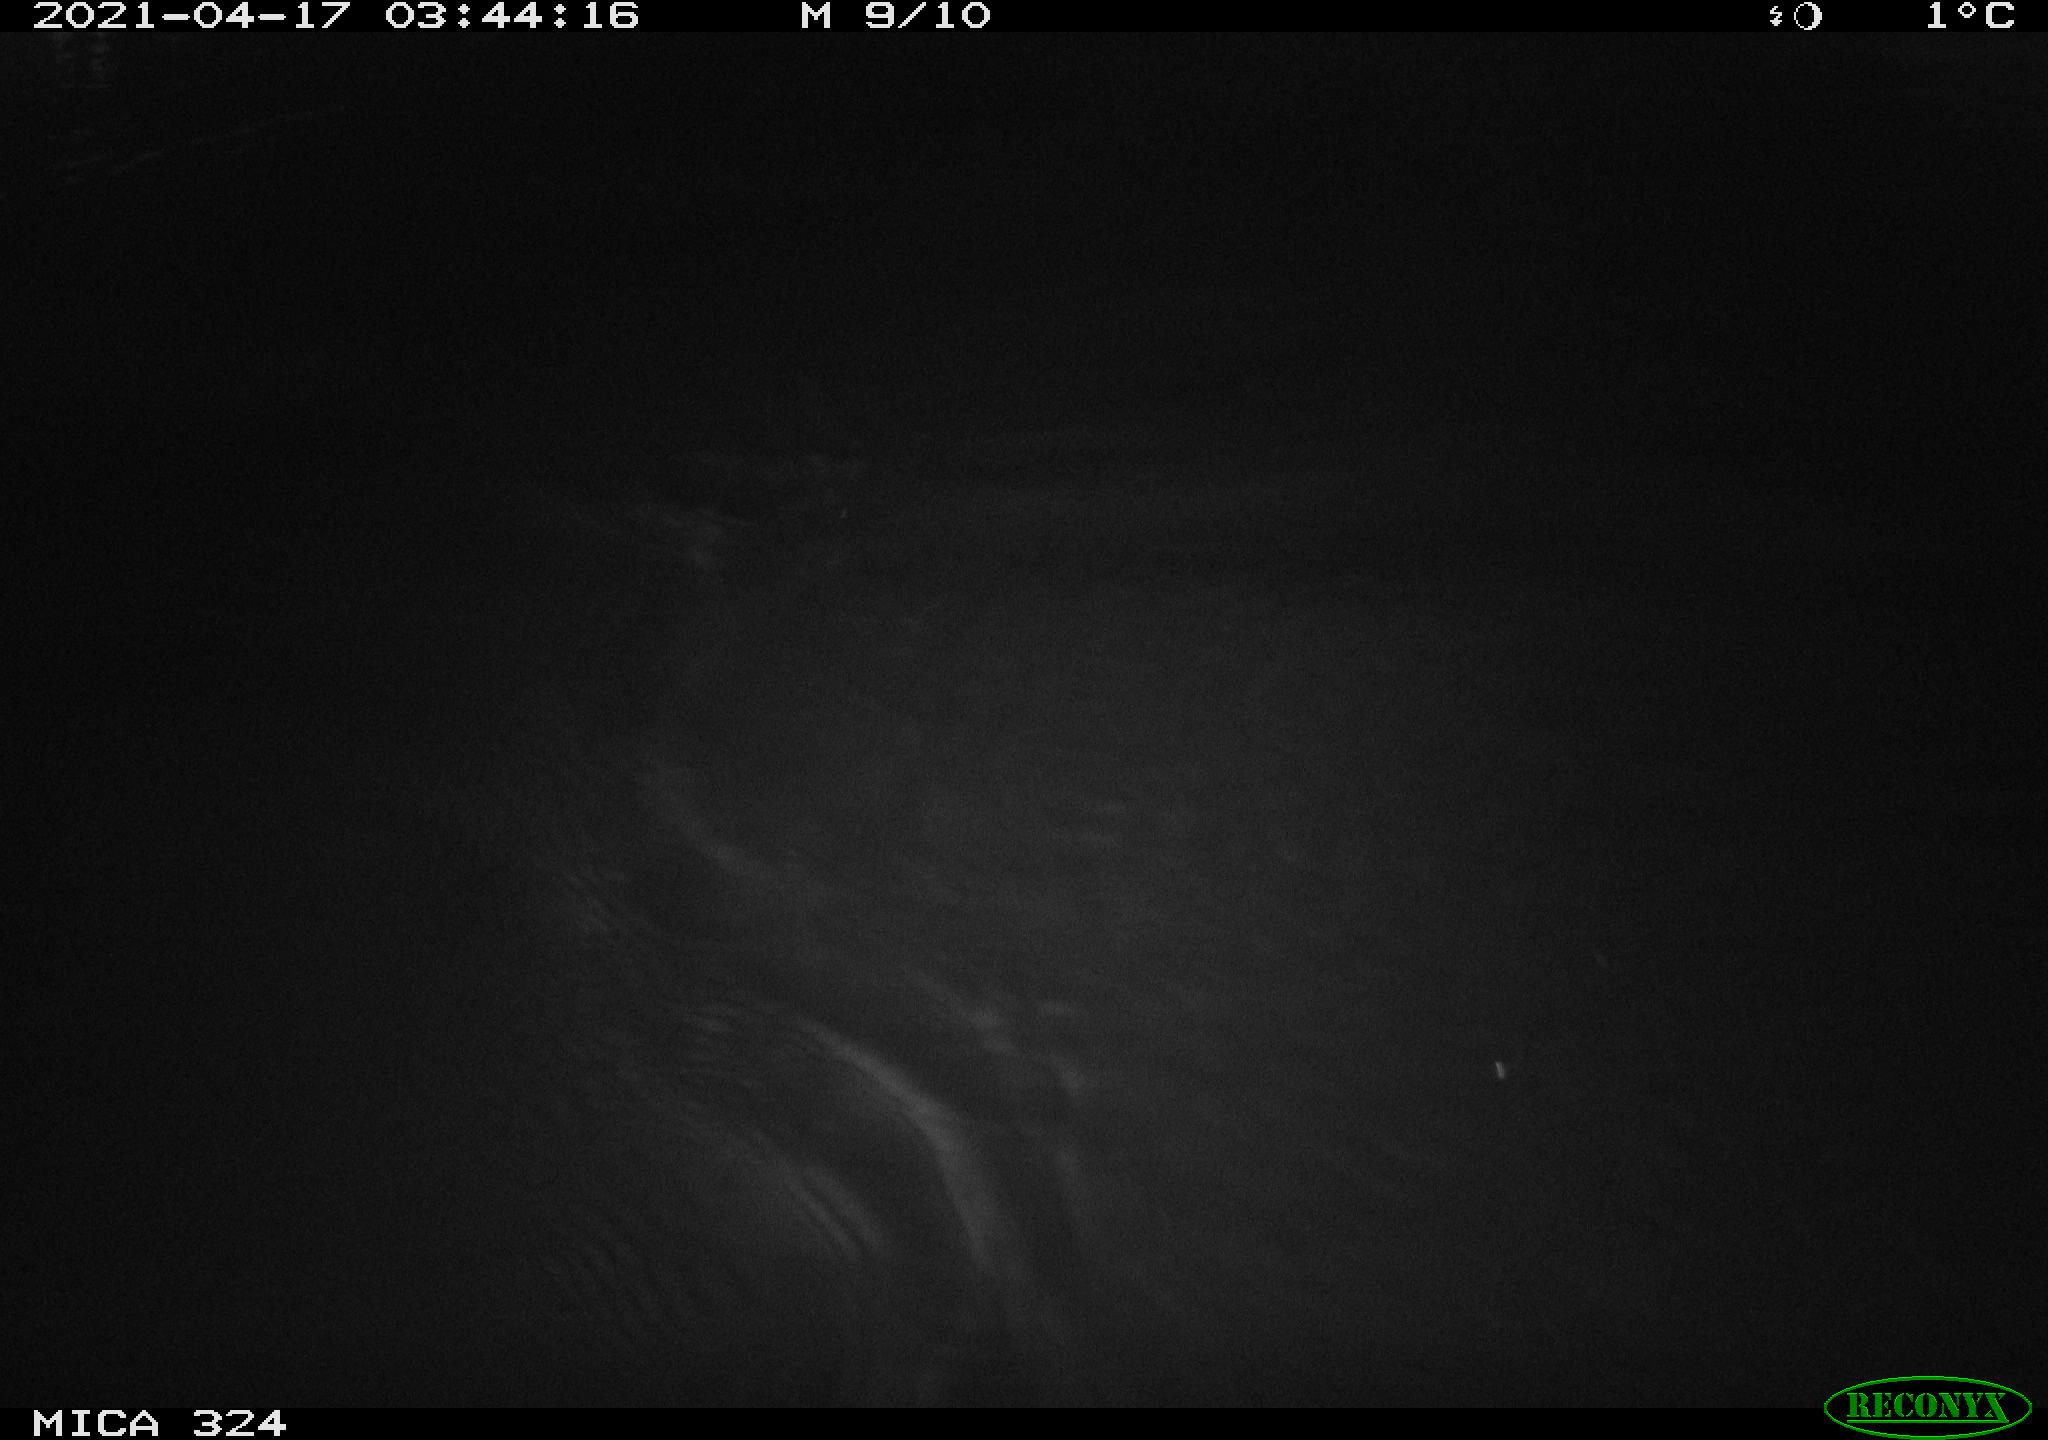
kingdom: Animalia
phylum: Chordata
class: Aves
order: Anseriformes
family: Anatidae
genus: Anas
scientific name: Anas platyrhynchos
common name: Mallard
